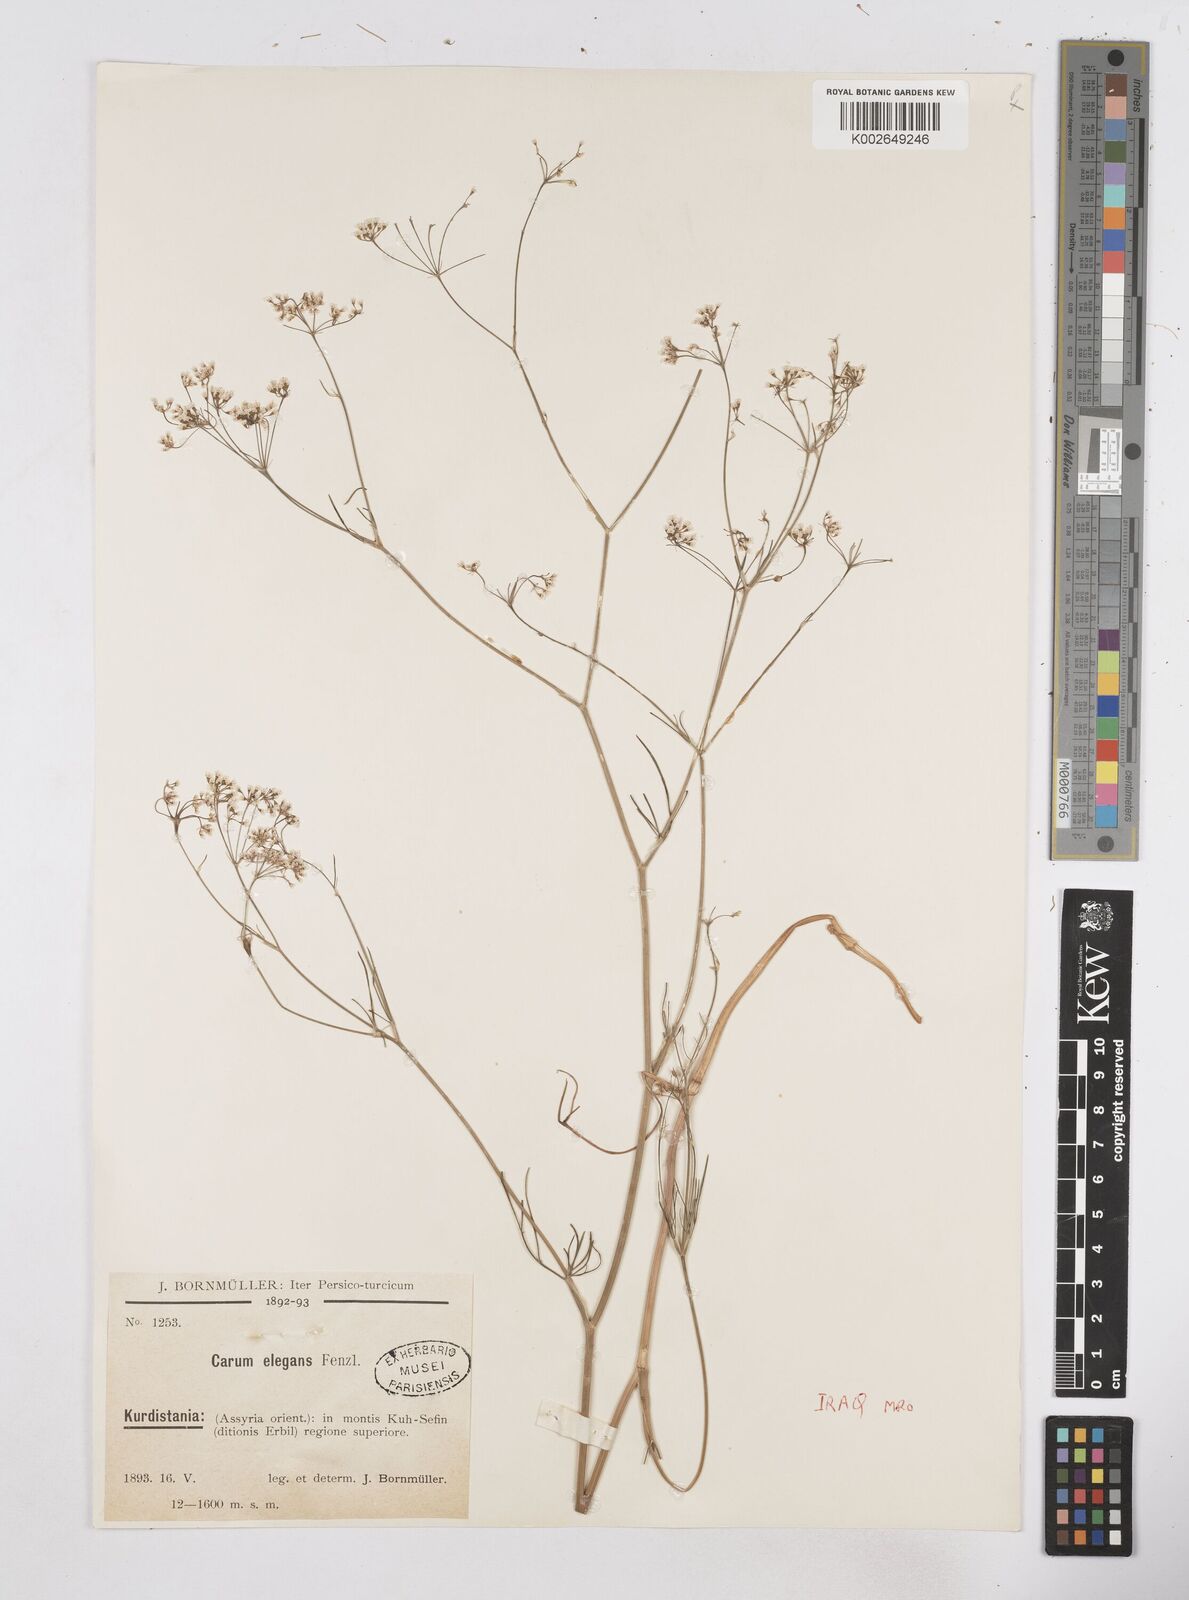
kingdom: Plantae
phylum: Tracheophyta
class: Magnoliopsida
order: Apiales
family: Apiaceae
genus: Bunium
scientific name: Bunium paucifolium
